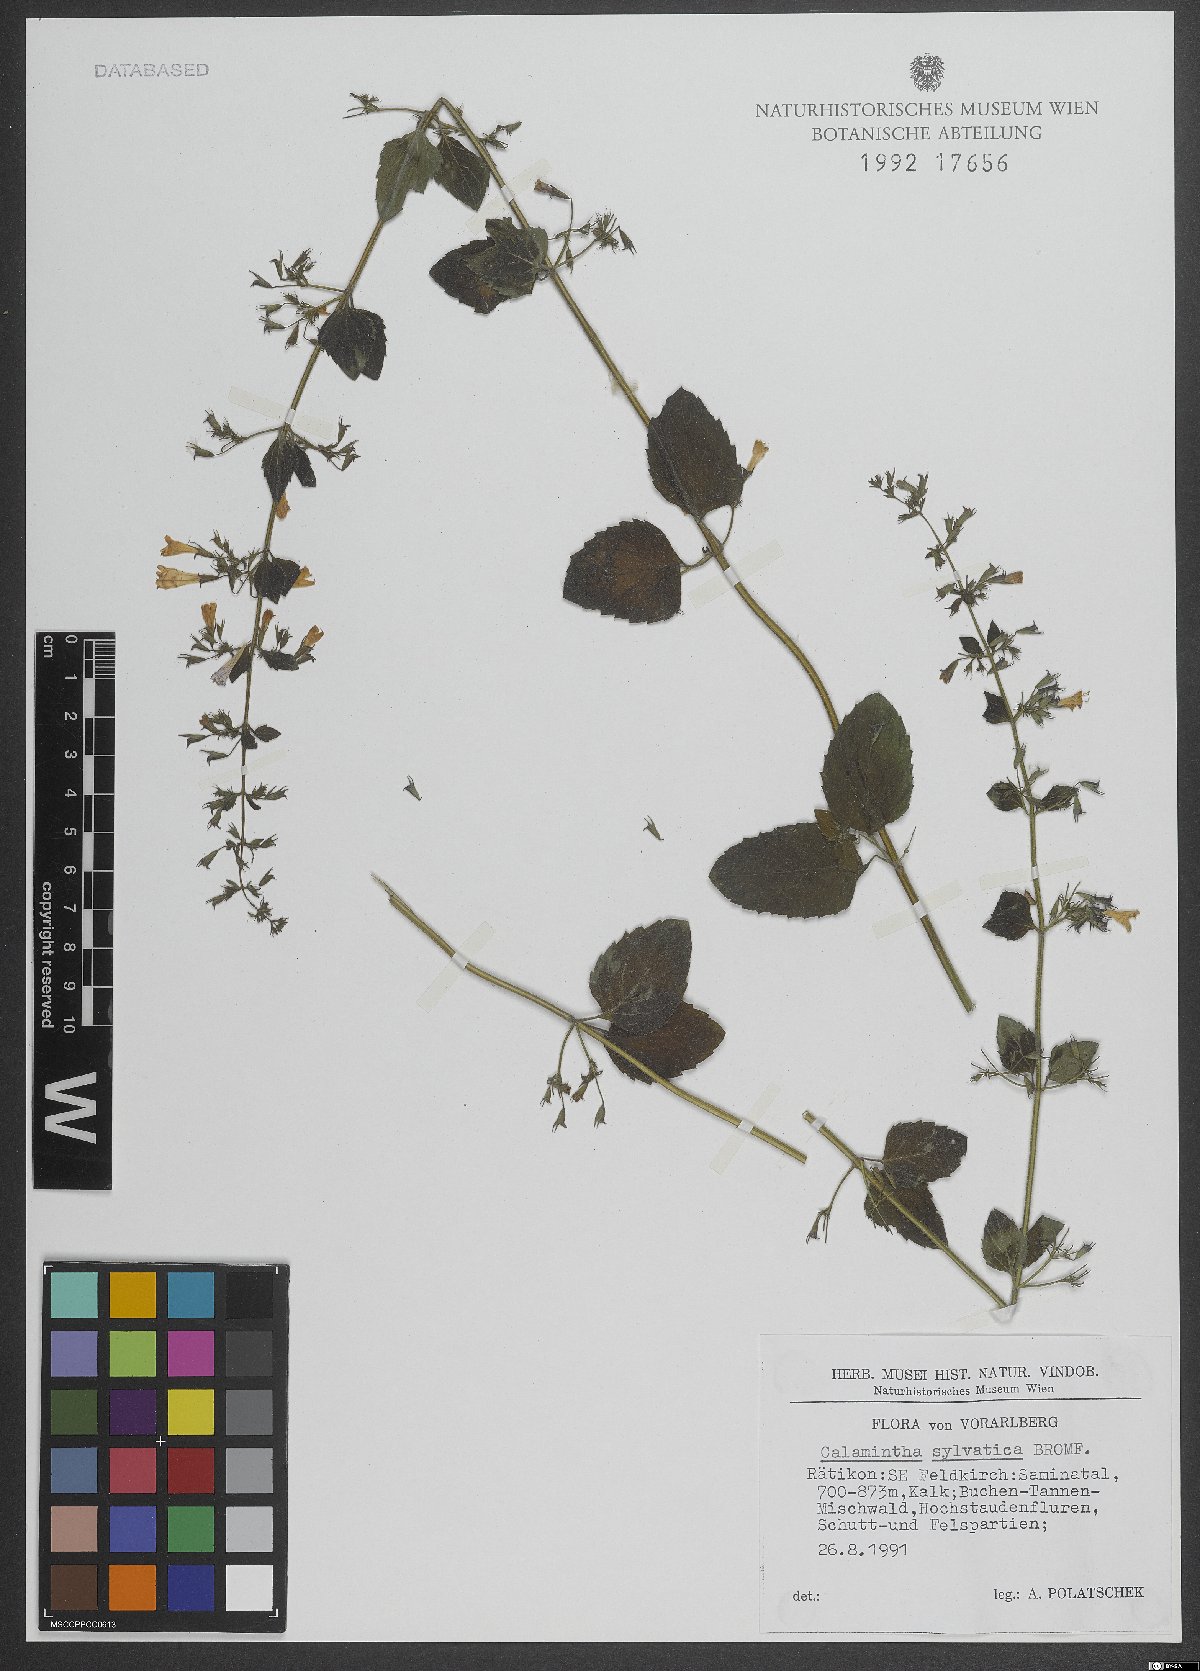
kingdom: Plantae
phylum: Tracheophyta
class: Magnoliopsida
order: Lamiales
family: Lamiaceae
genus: Clinopodium
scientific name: Clinopodium menthifolium
